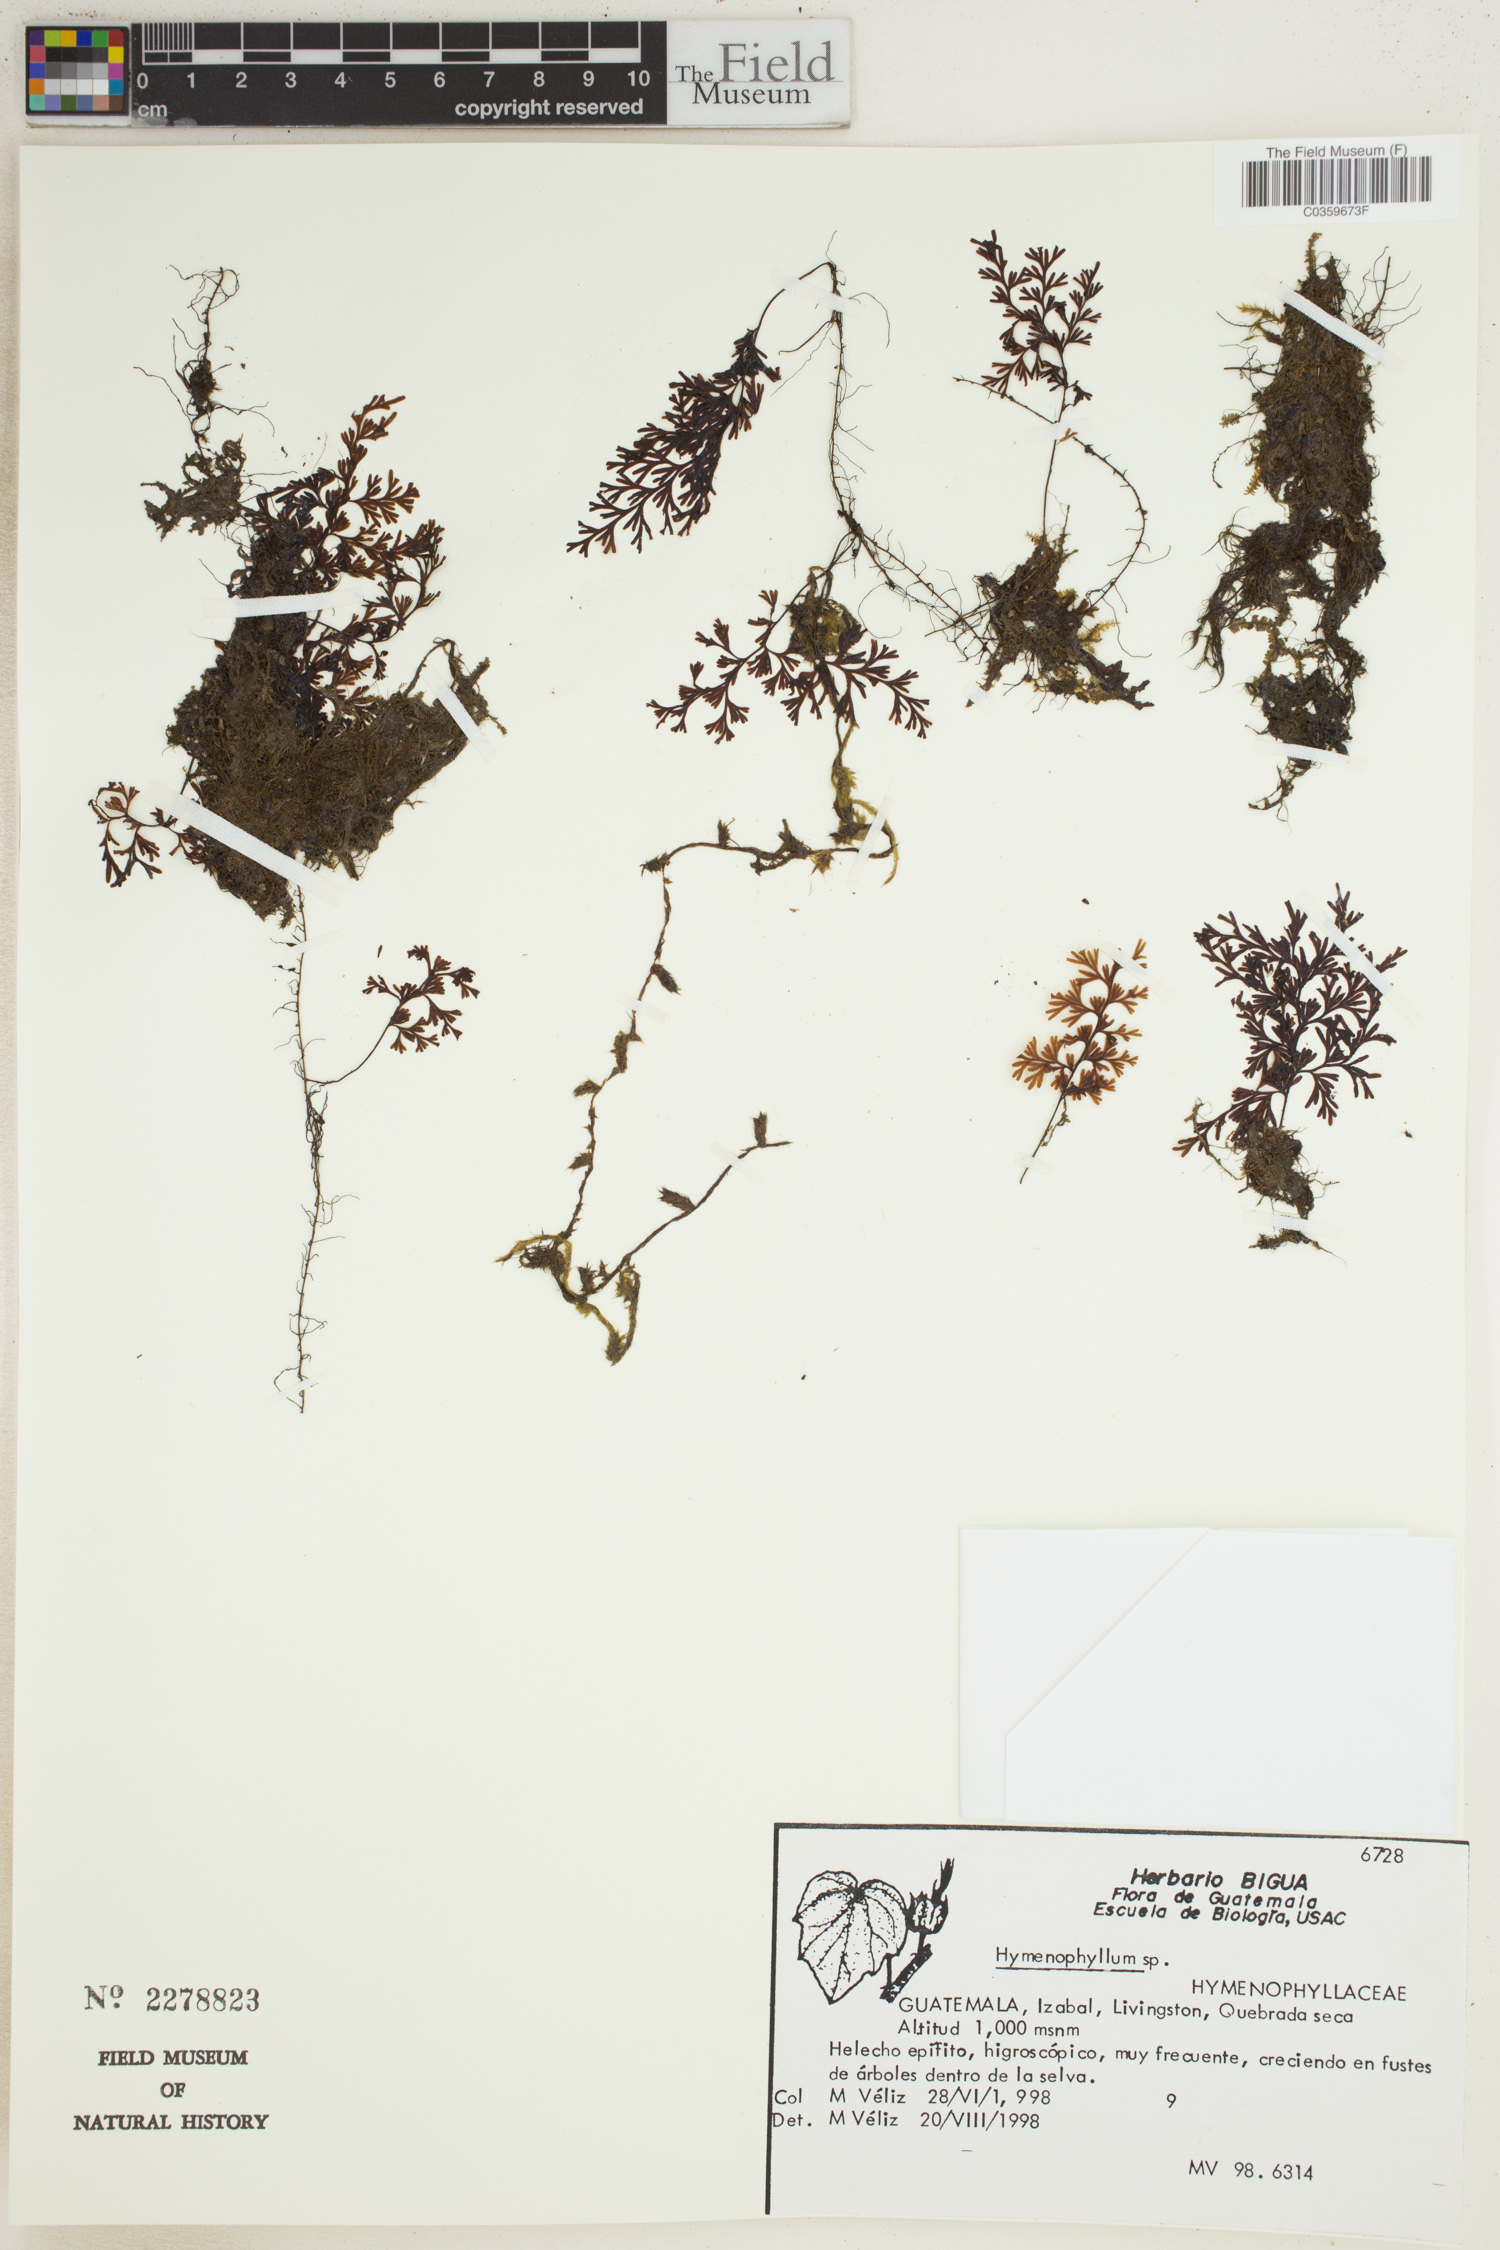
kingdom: Plantae
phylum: Tracheophyta
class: Polypodiopsida
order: Hymenophyllales
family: Hymenophyllaceae
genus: Hymenophyllum
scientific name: Hymenophyllum
